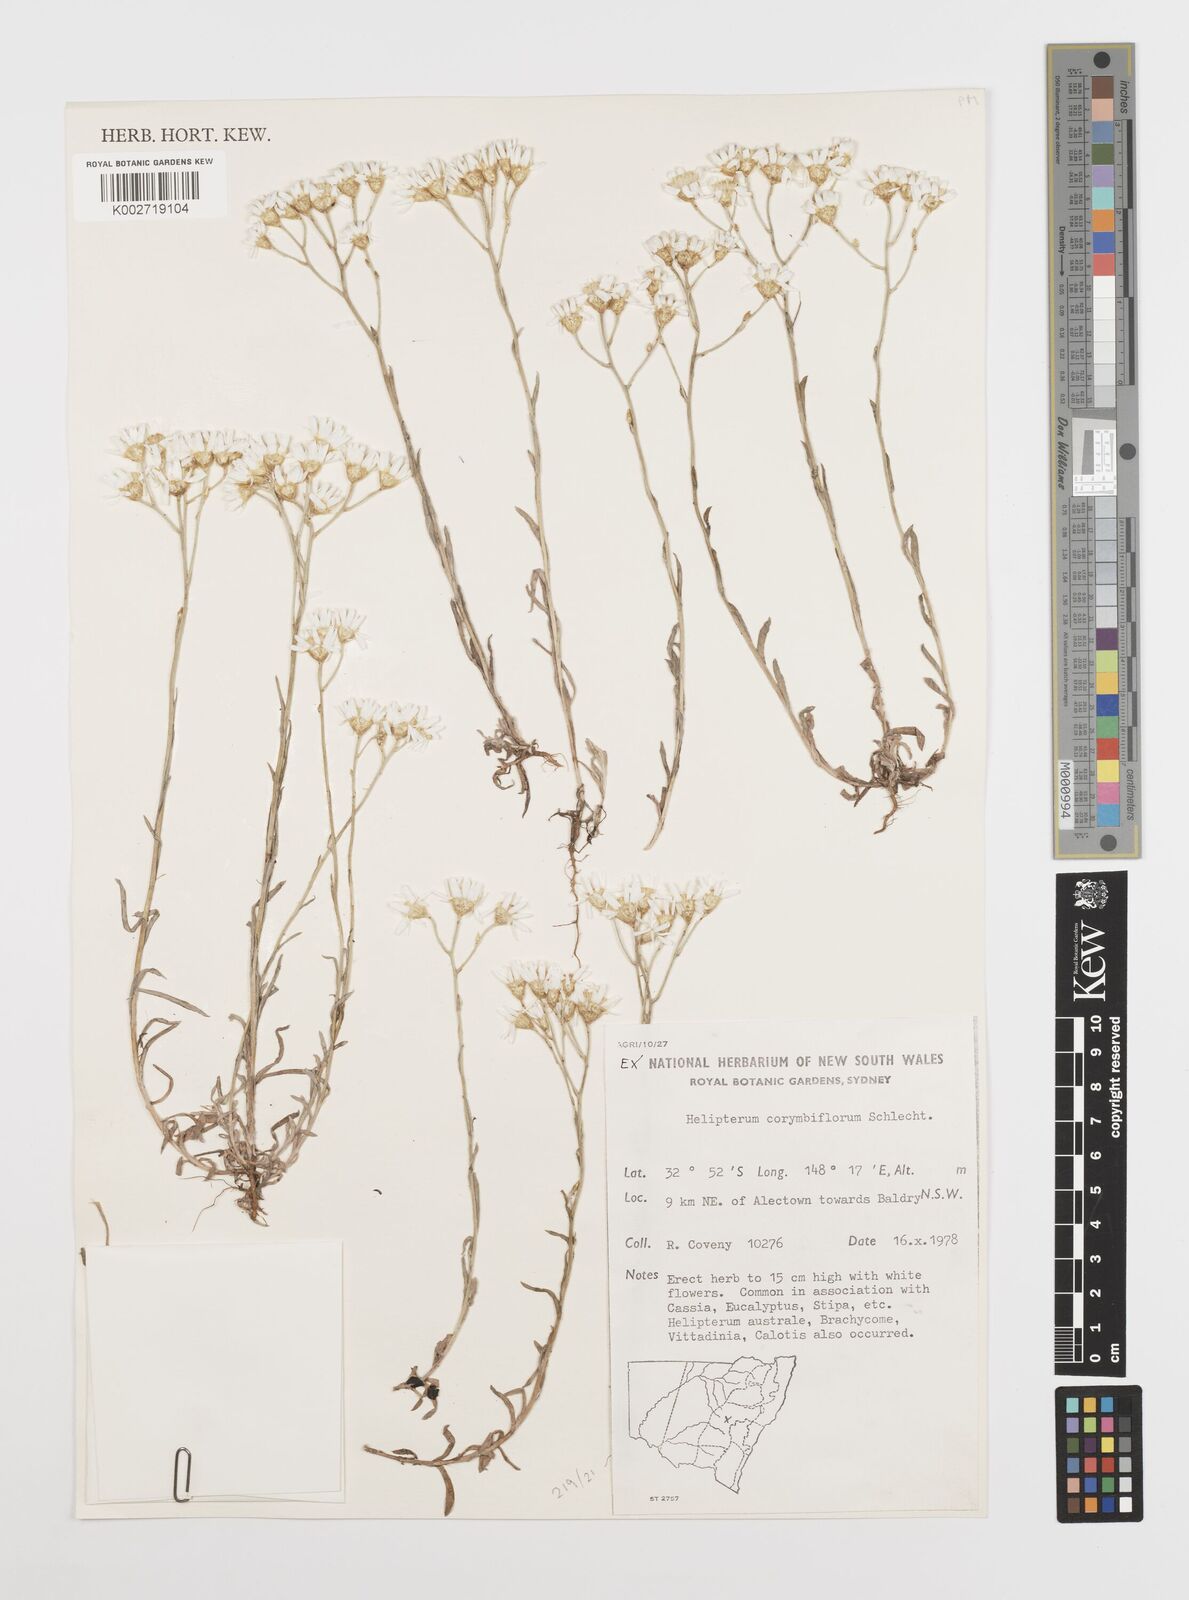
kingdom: Plantae
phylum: Tracheophyta
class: Magnoliopsida
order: Asterales
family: Asteraceae
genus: Rhodanthe
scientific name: Rhodanthe corymbiflora
